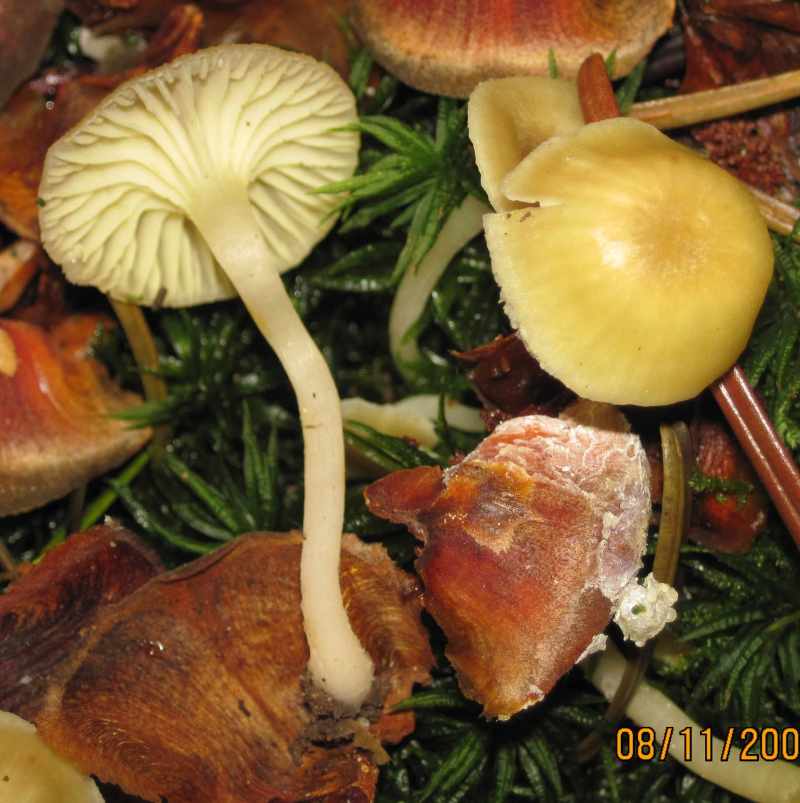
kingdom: Fungi
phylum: Basidiomycota
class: Agaricomycetes
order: Agaricales
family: Hygrophoraceae
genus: Chrysomphalina
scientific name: Chrysomphalina grossula
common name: stød-gyldenblad
